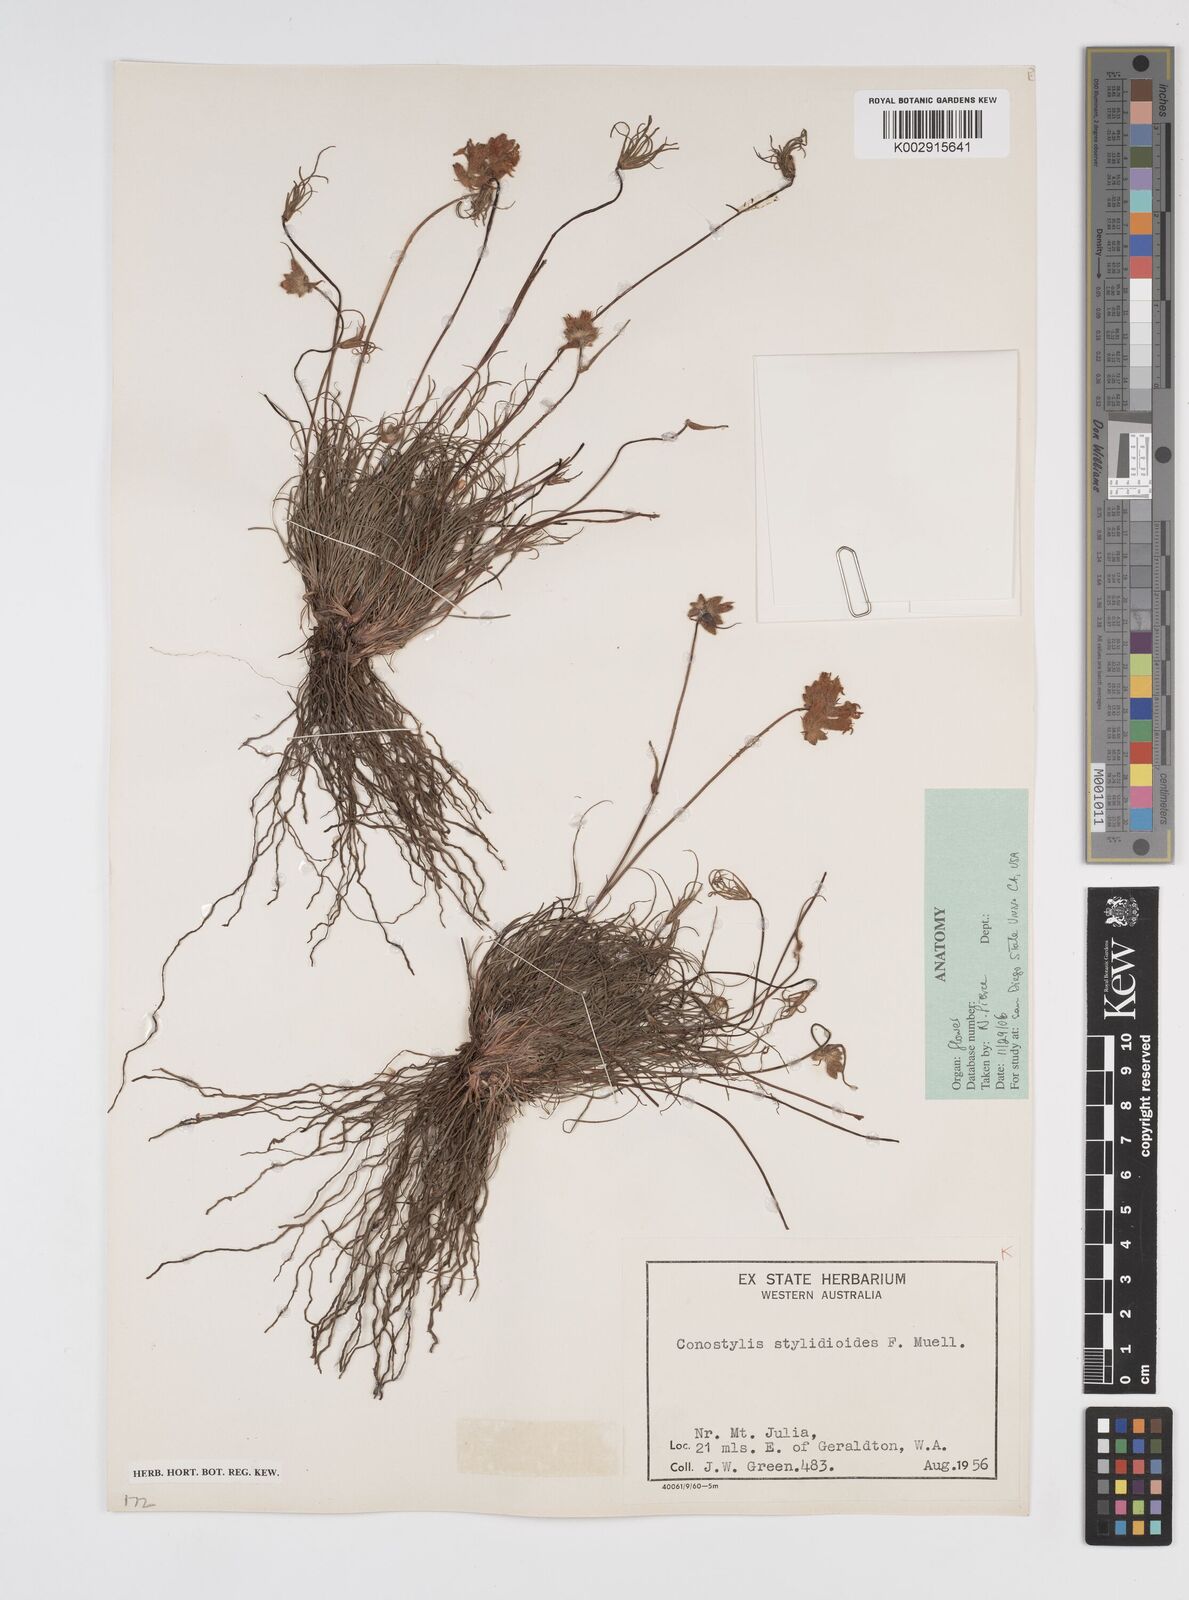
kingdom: Plantae
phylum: Tracheophyta
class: Liliopsida
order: Commelinales
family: Haemodoraceae
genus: Conostylis
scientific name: Conostylis stylidioides
